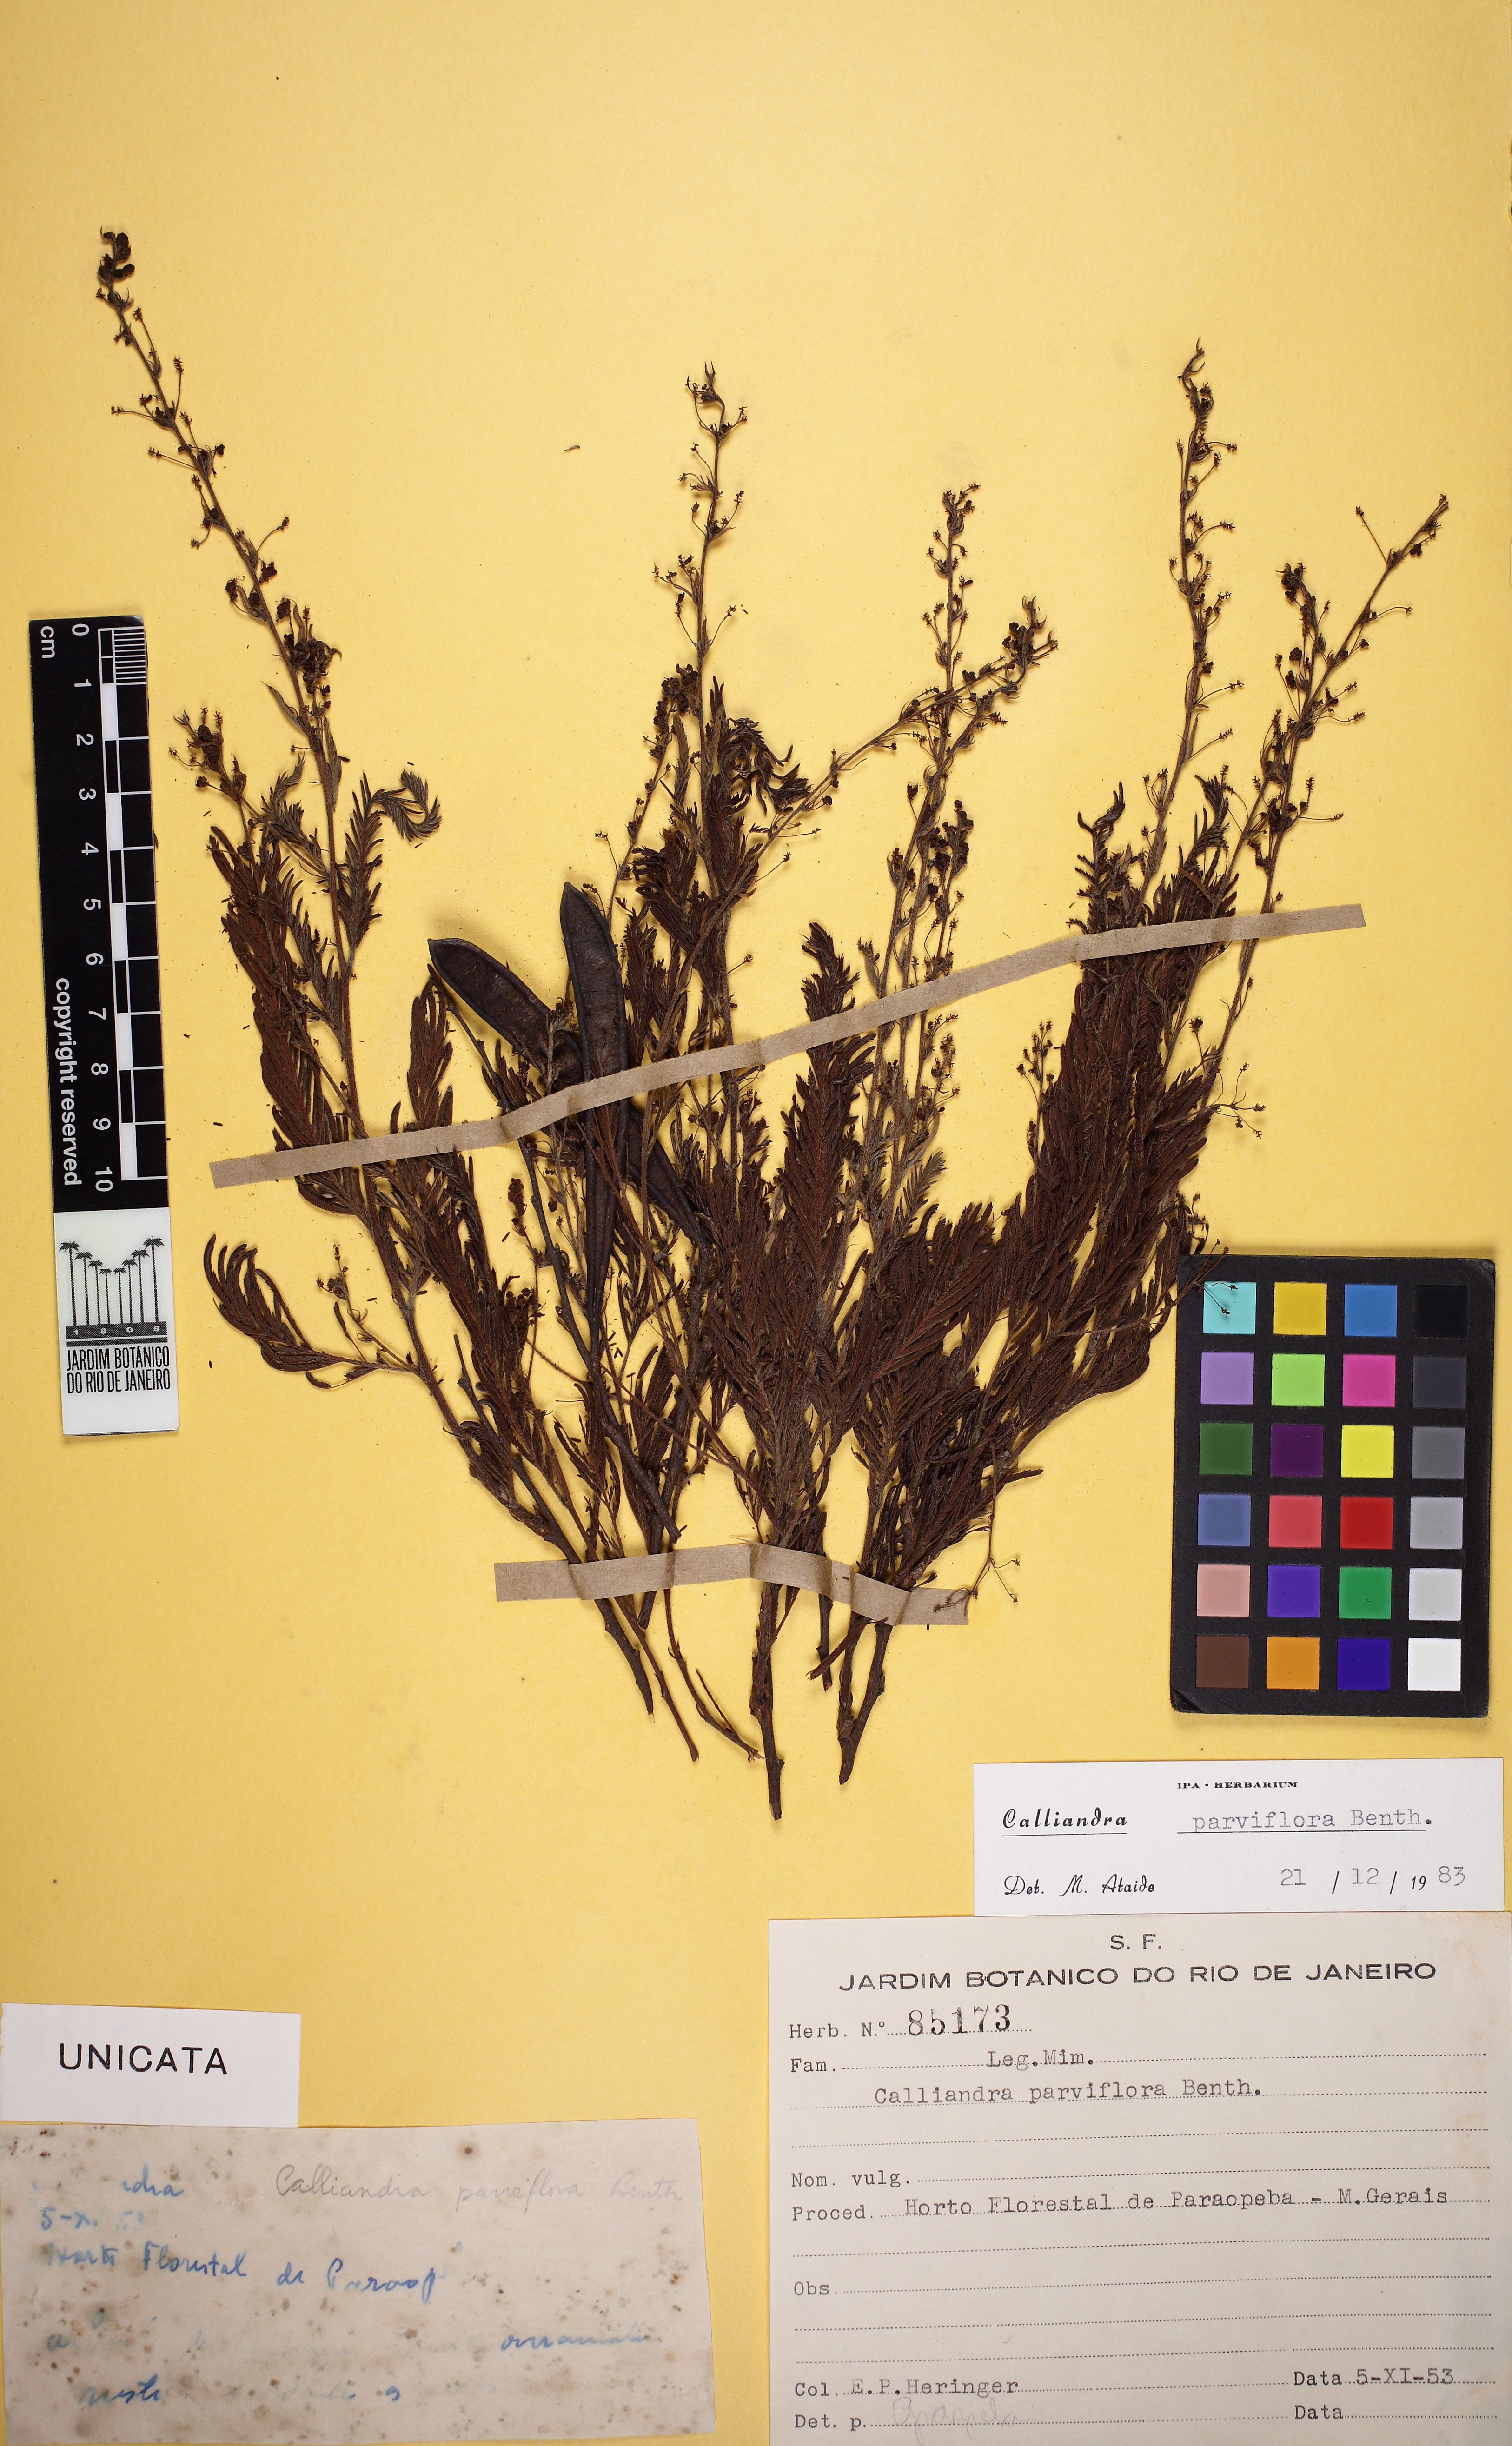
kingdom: Plantae
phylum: Tracheophyta
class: Magnoliopsida
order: Fabales
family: Fabaceae
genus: Calliandra
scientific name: Calliandra parviflora
